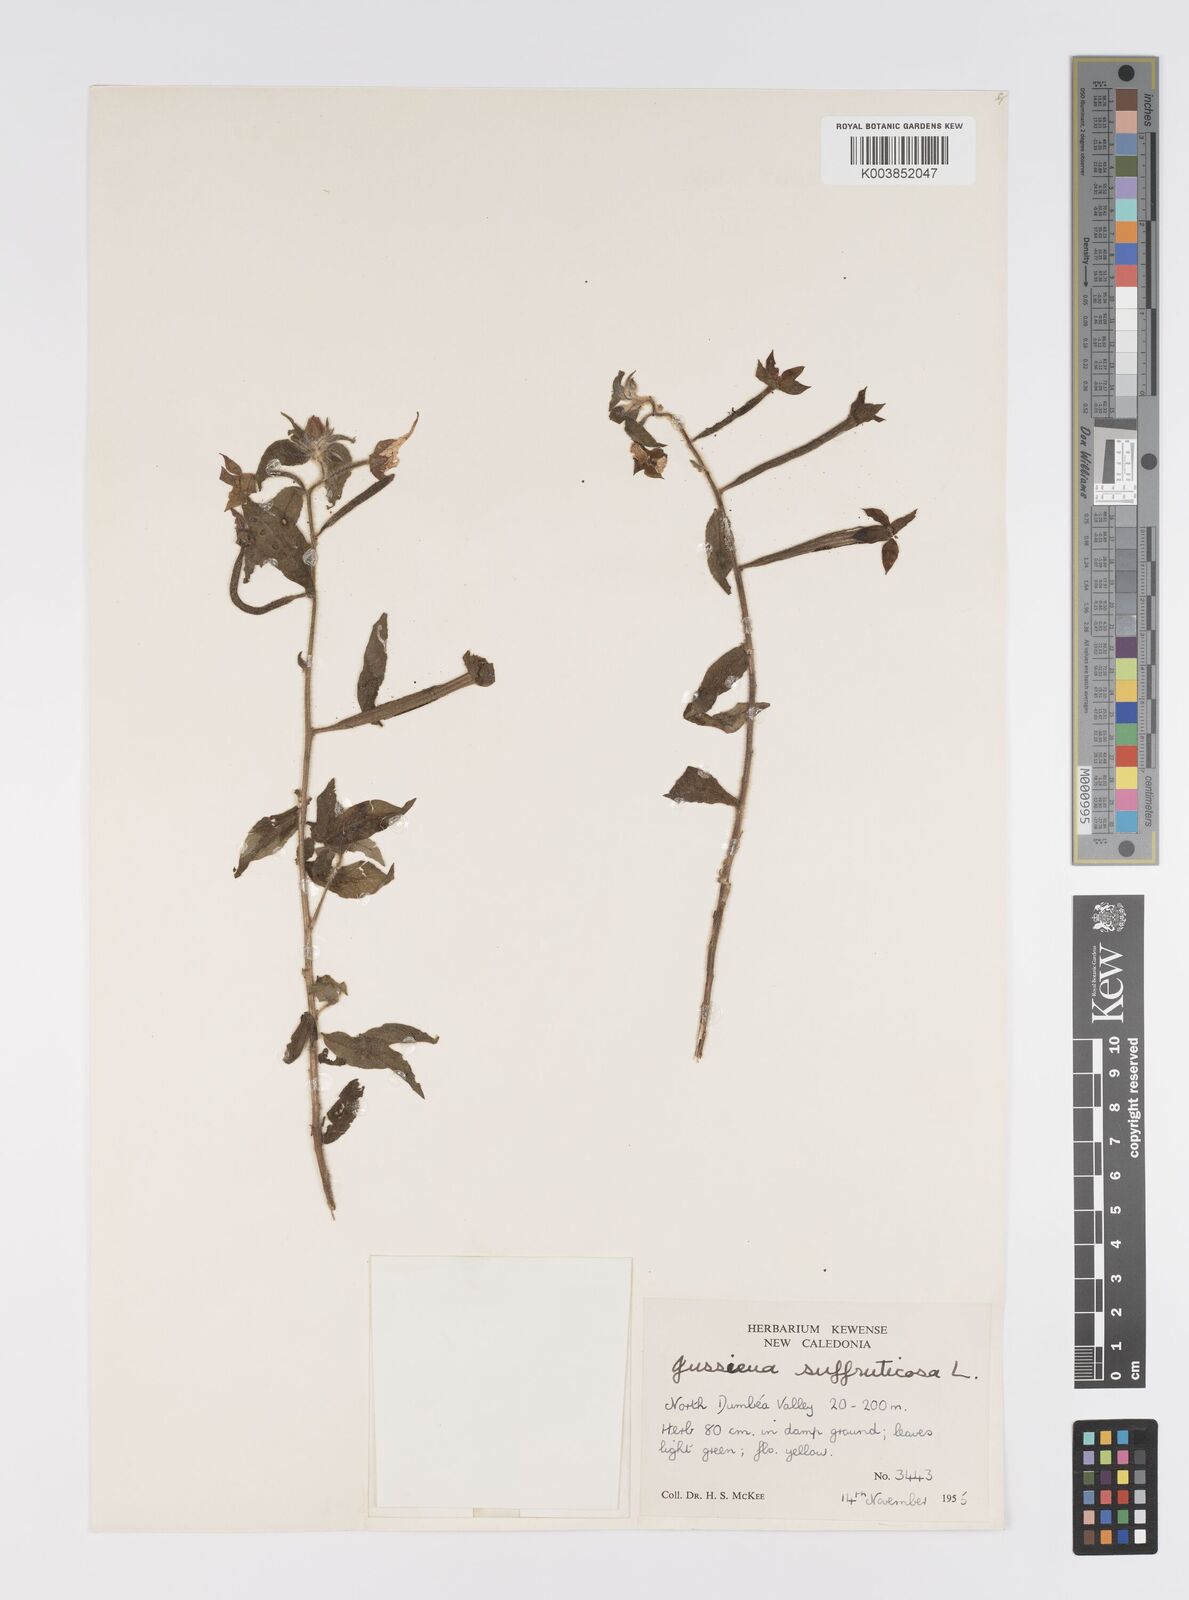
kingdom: Plantae
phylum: Tracheophyta
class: Magnoliopsida
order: Myrtales
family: Onagraceae
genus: Ludwigia
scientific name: Ludwigia octovalvis
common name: Water-primrose
